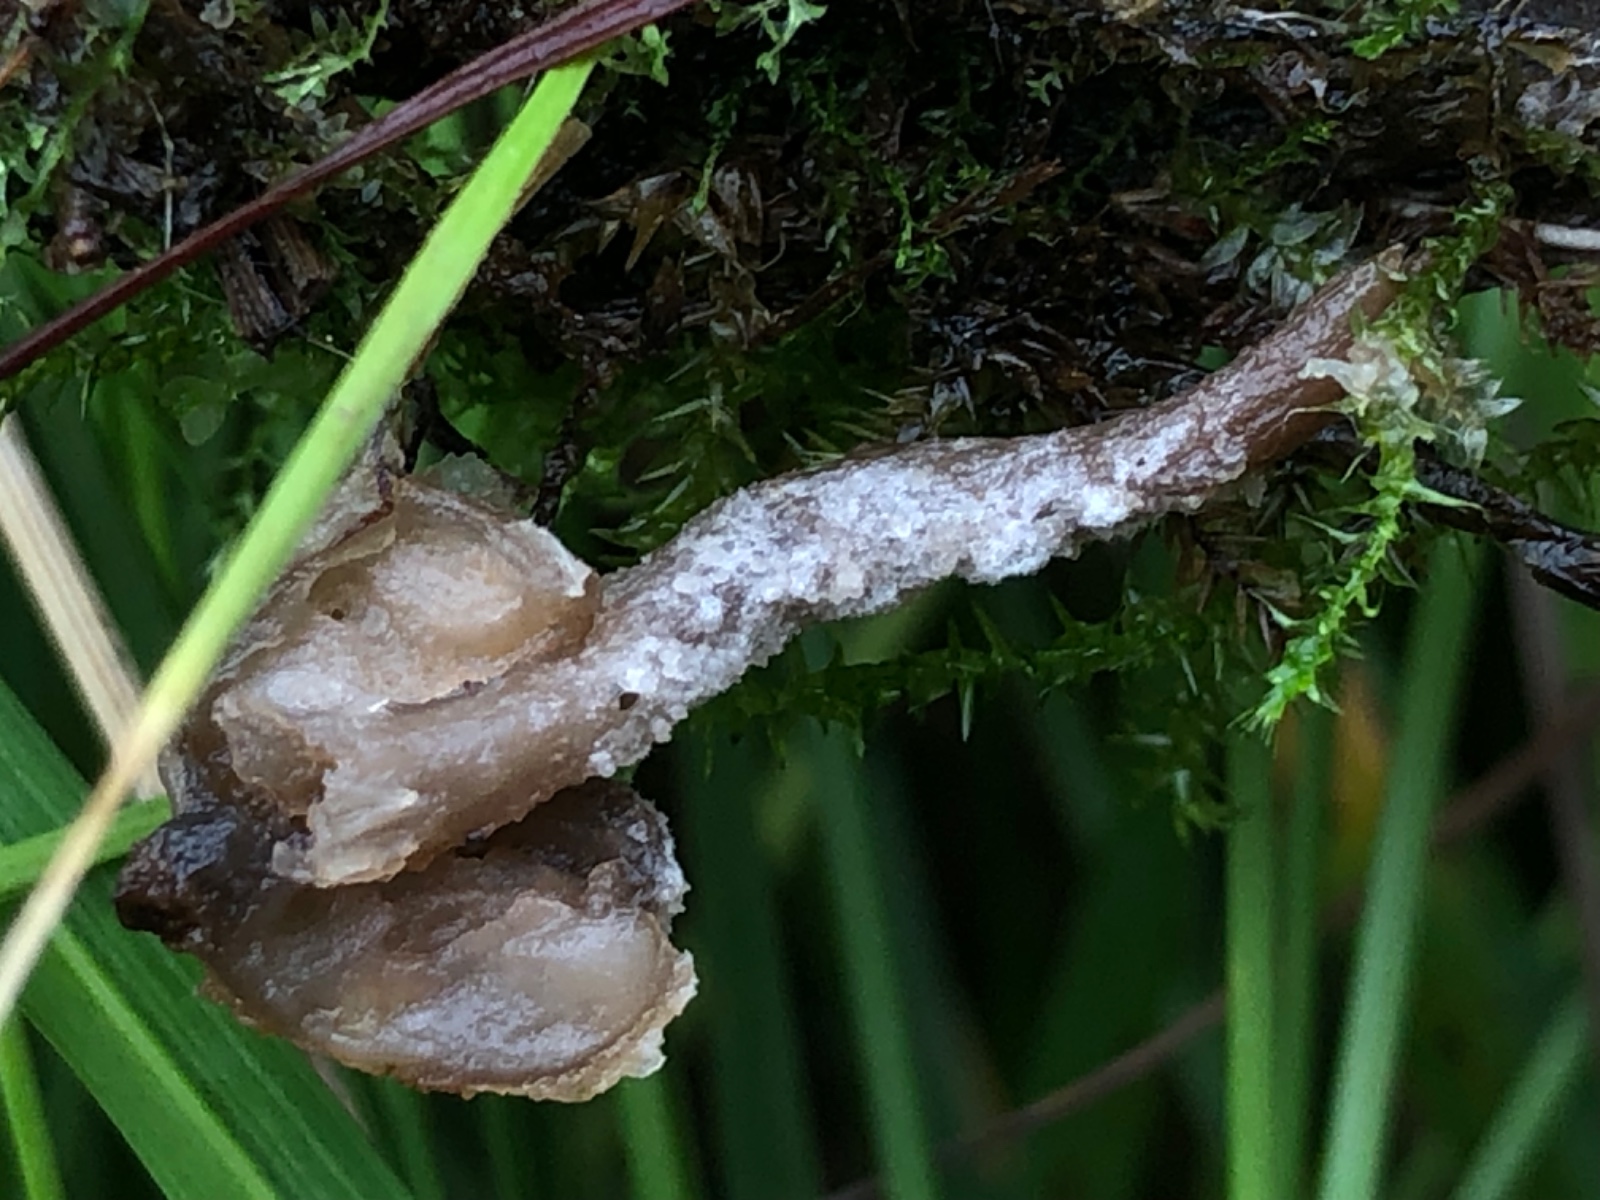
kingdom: Fungi
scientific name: Fungi
